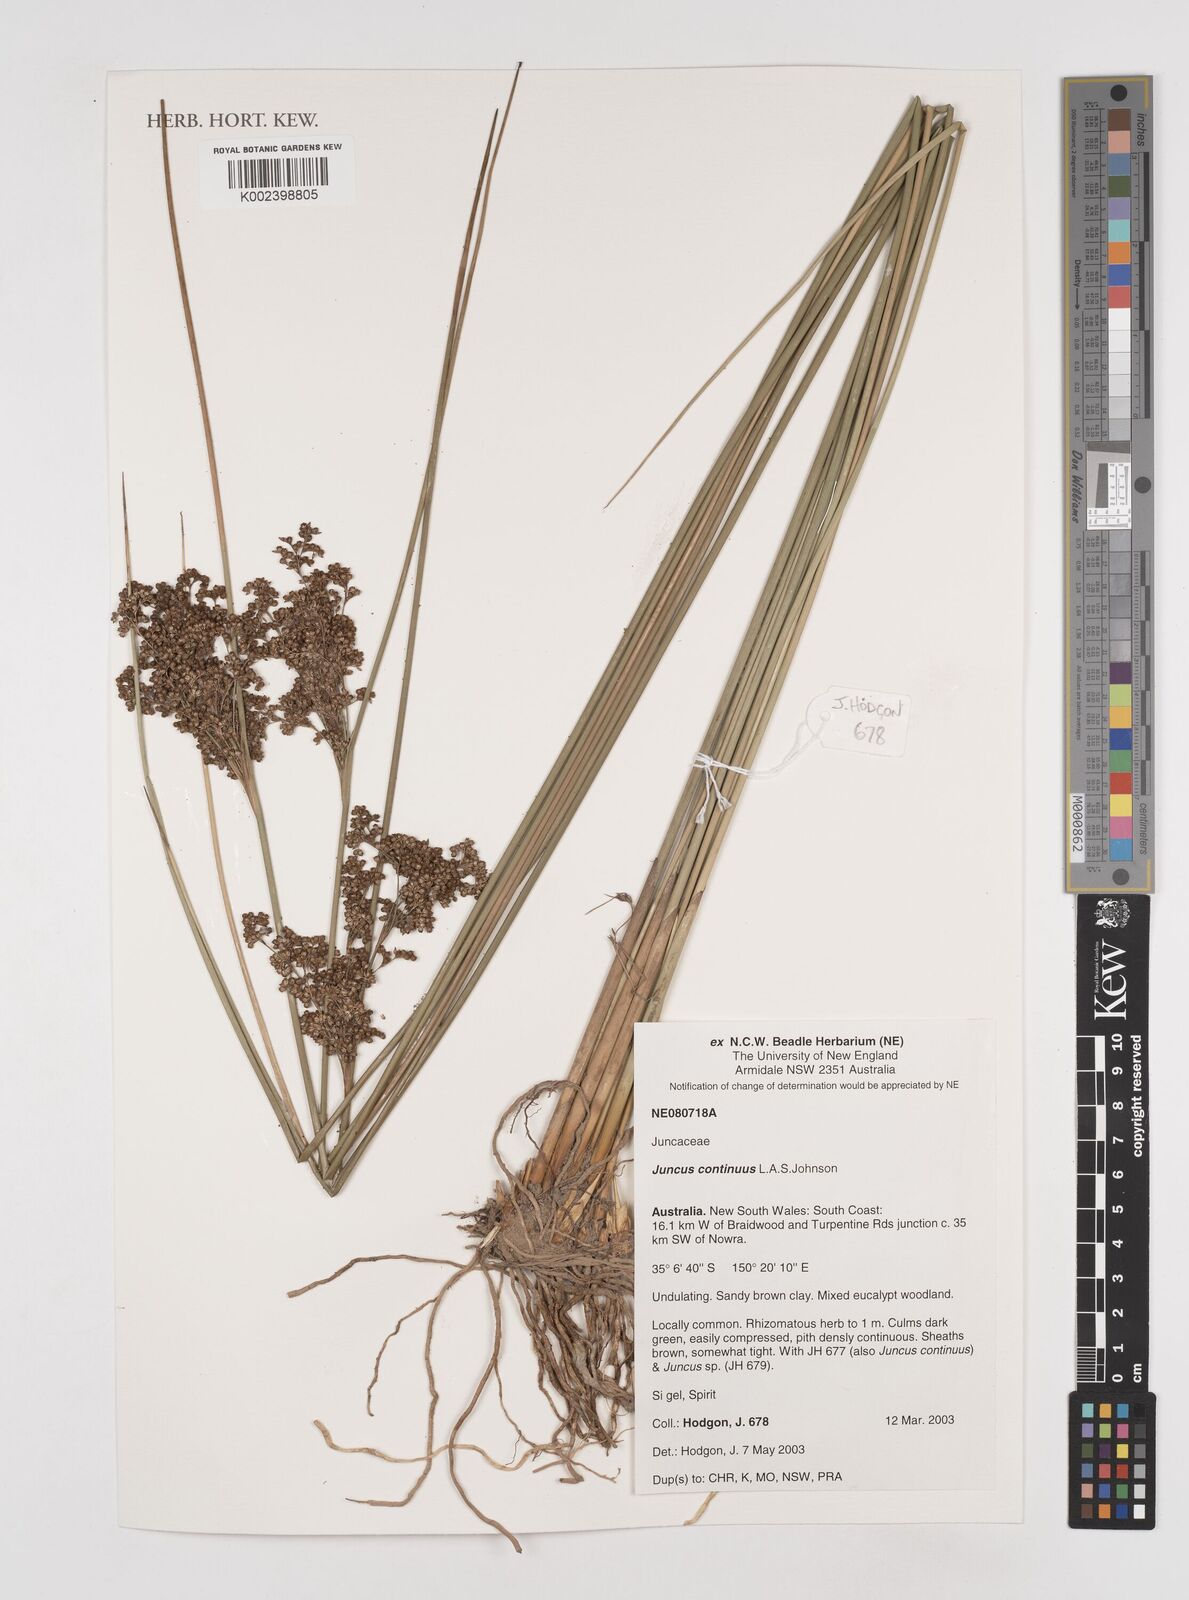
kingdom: Plantae
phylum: Tracheophyta
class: Liliopsida
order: Poales
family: Juncaceae
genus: Juncus
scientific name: Juncus continuus
